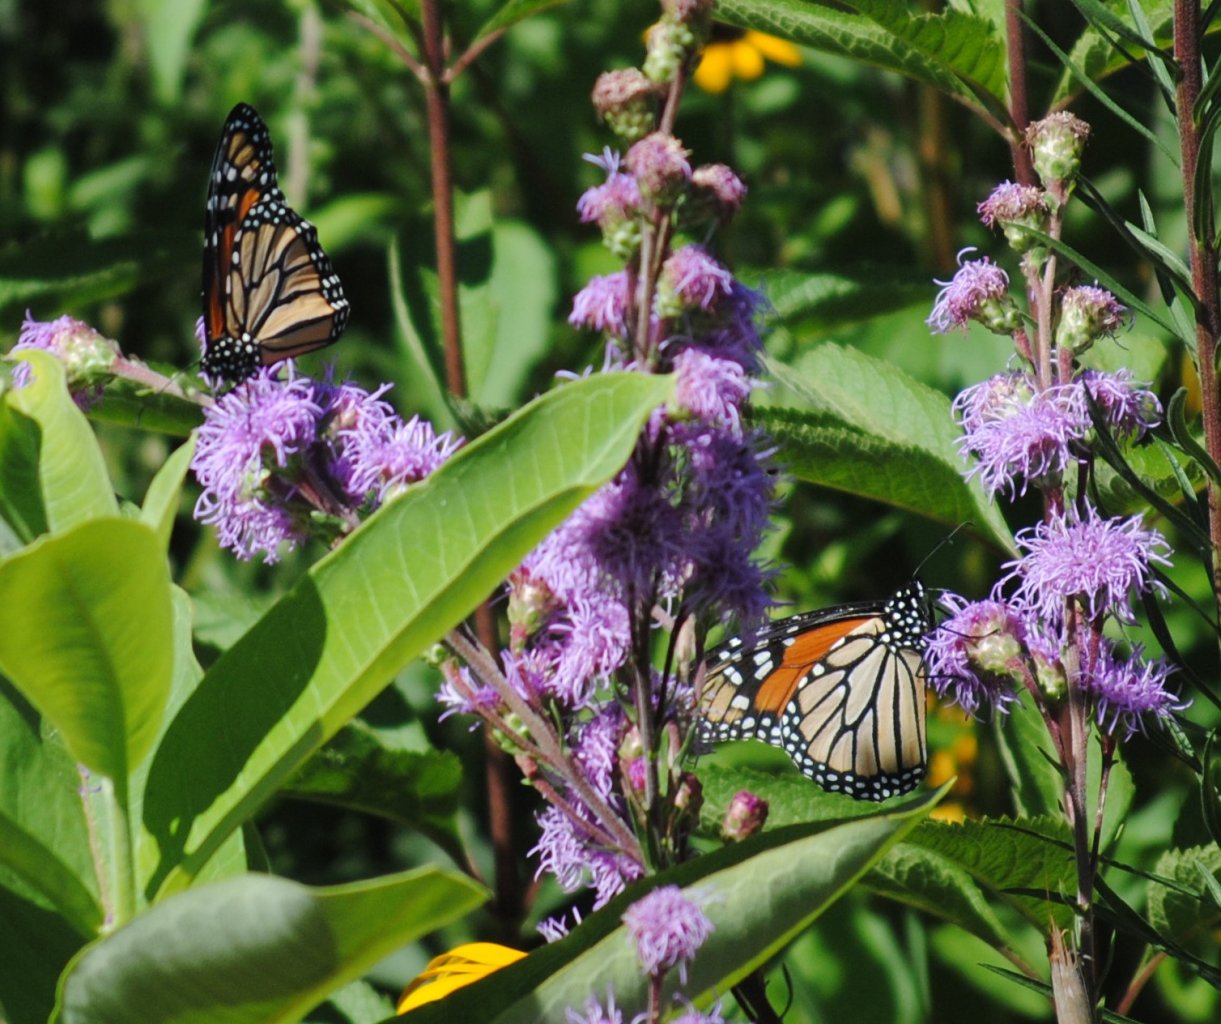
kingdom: Animalia
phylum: Arthropoda
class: Insecta
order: Lepidoptera
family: Nymphalidae
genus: Danaus
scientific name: Danaus plexippus
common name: Monarch
